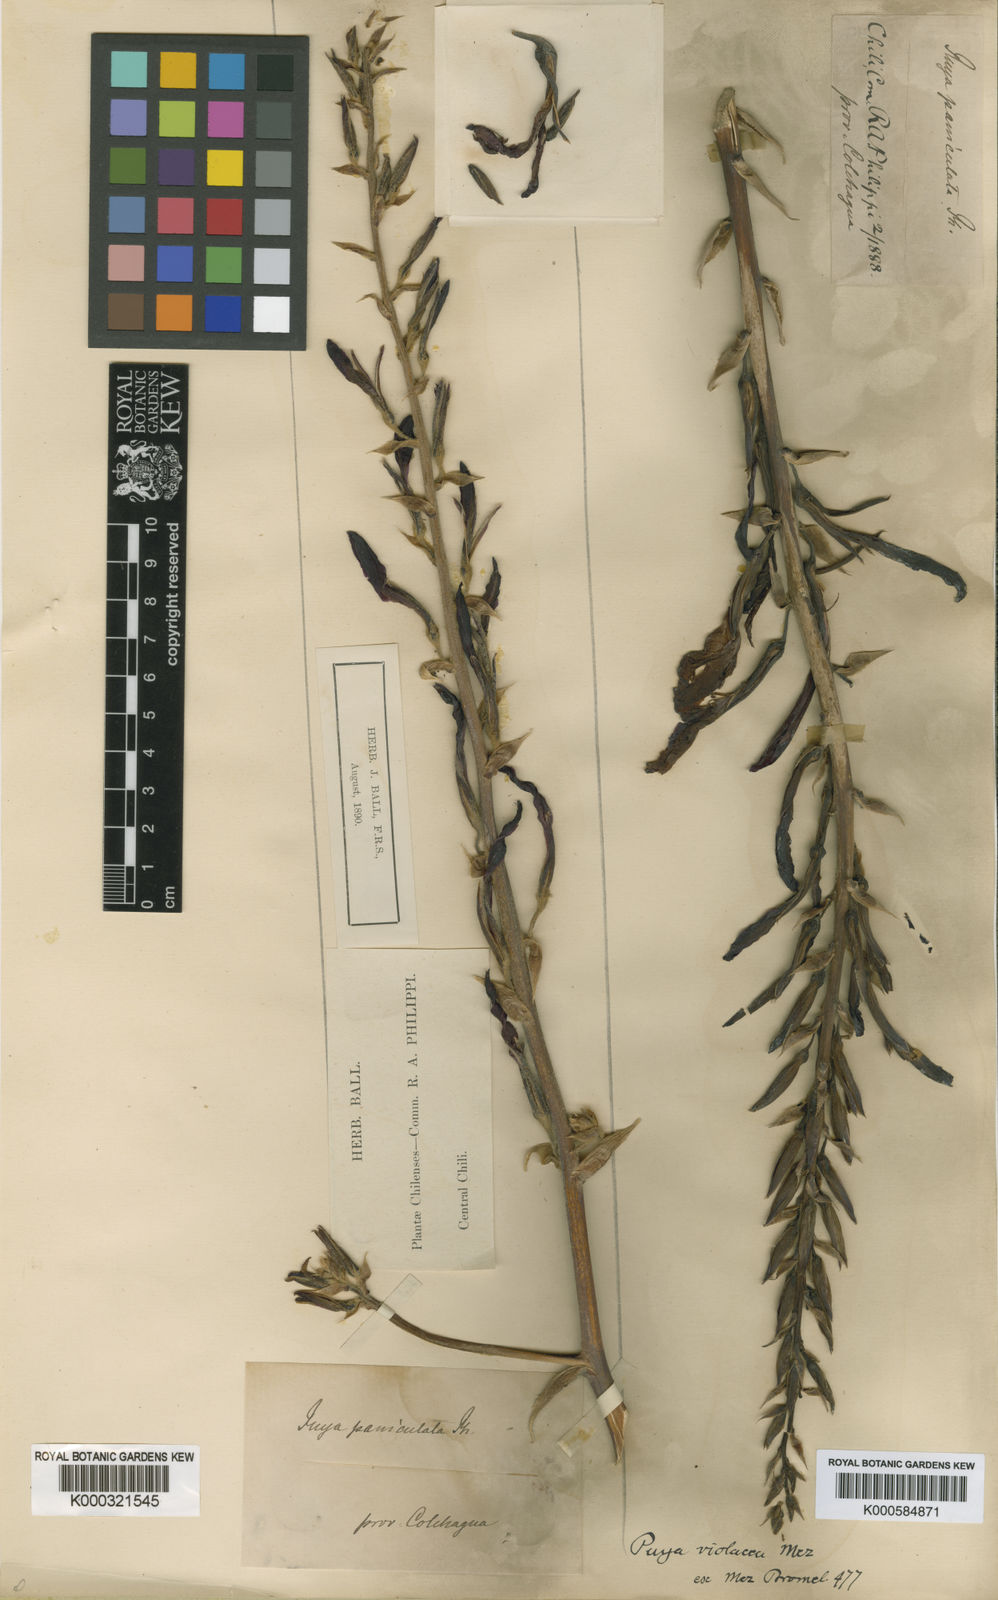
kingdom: Plantae
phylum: Tracheophyta
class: Liliopsida
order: Poales
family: Bromeliaceae
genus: Puya
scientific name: Puya coerulea
